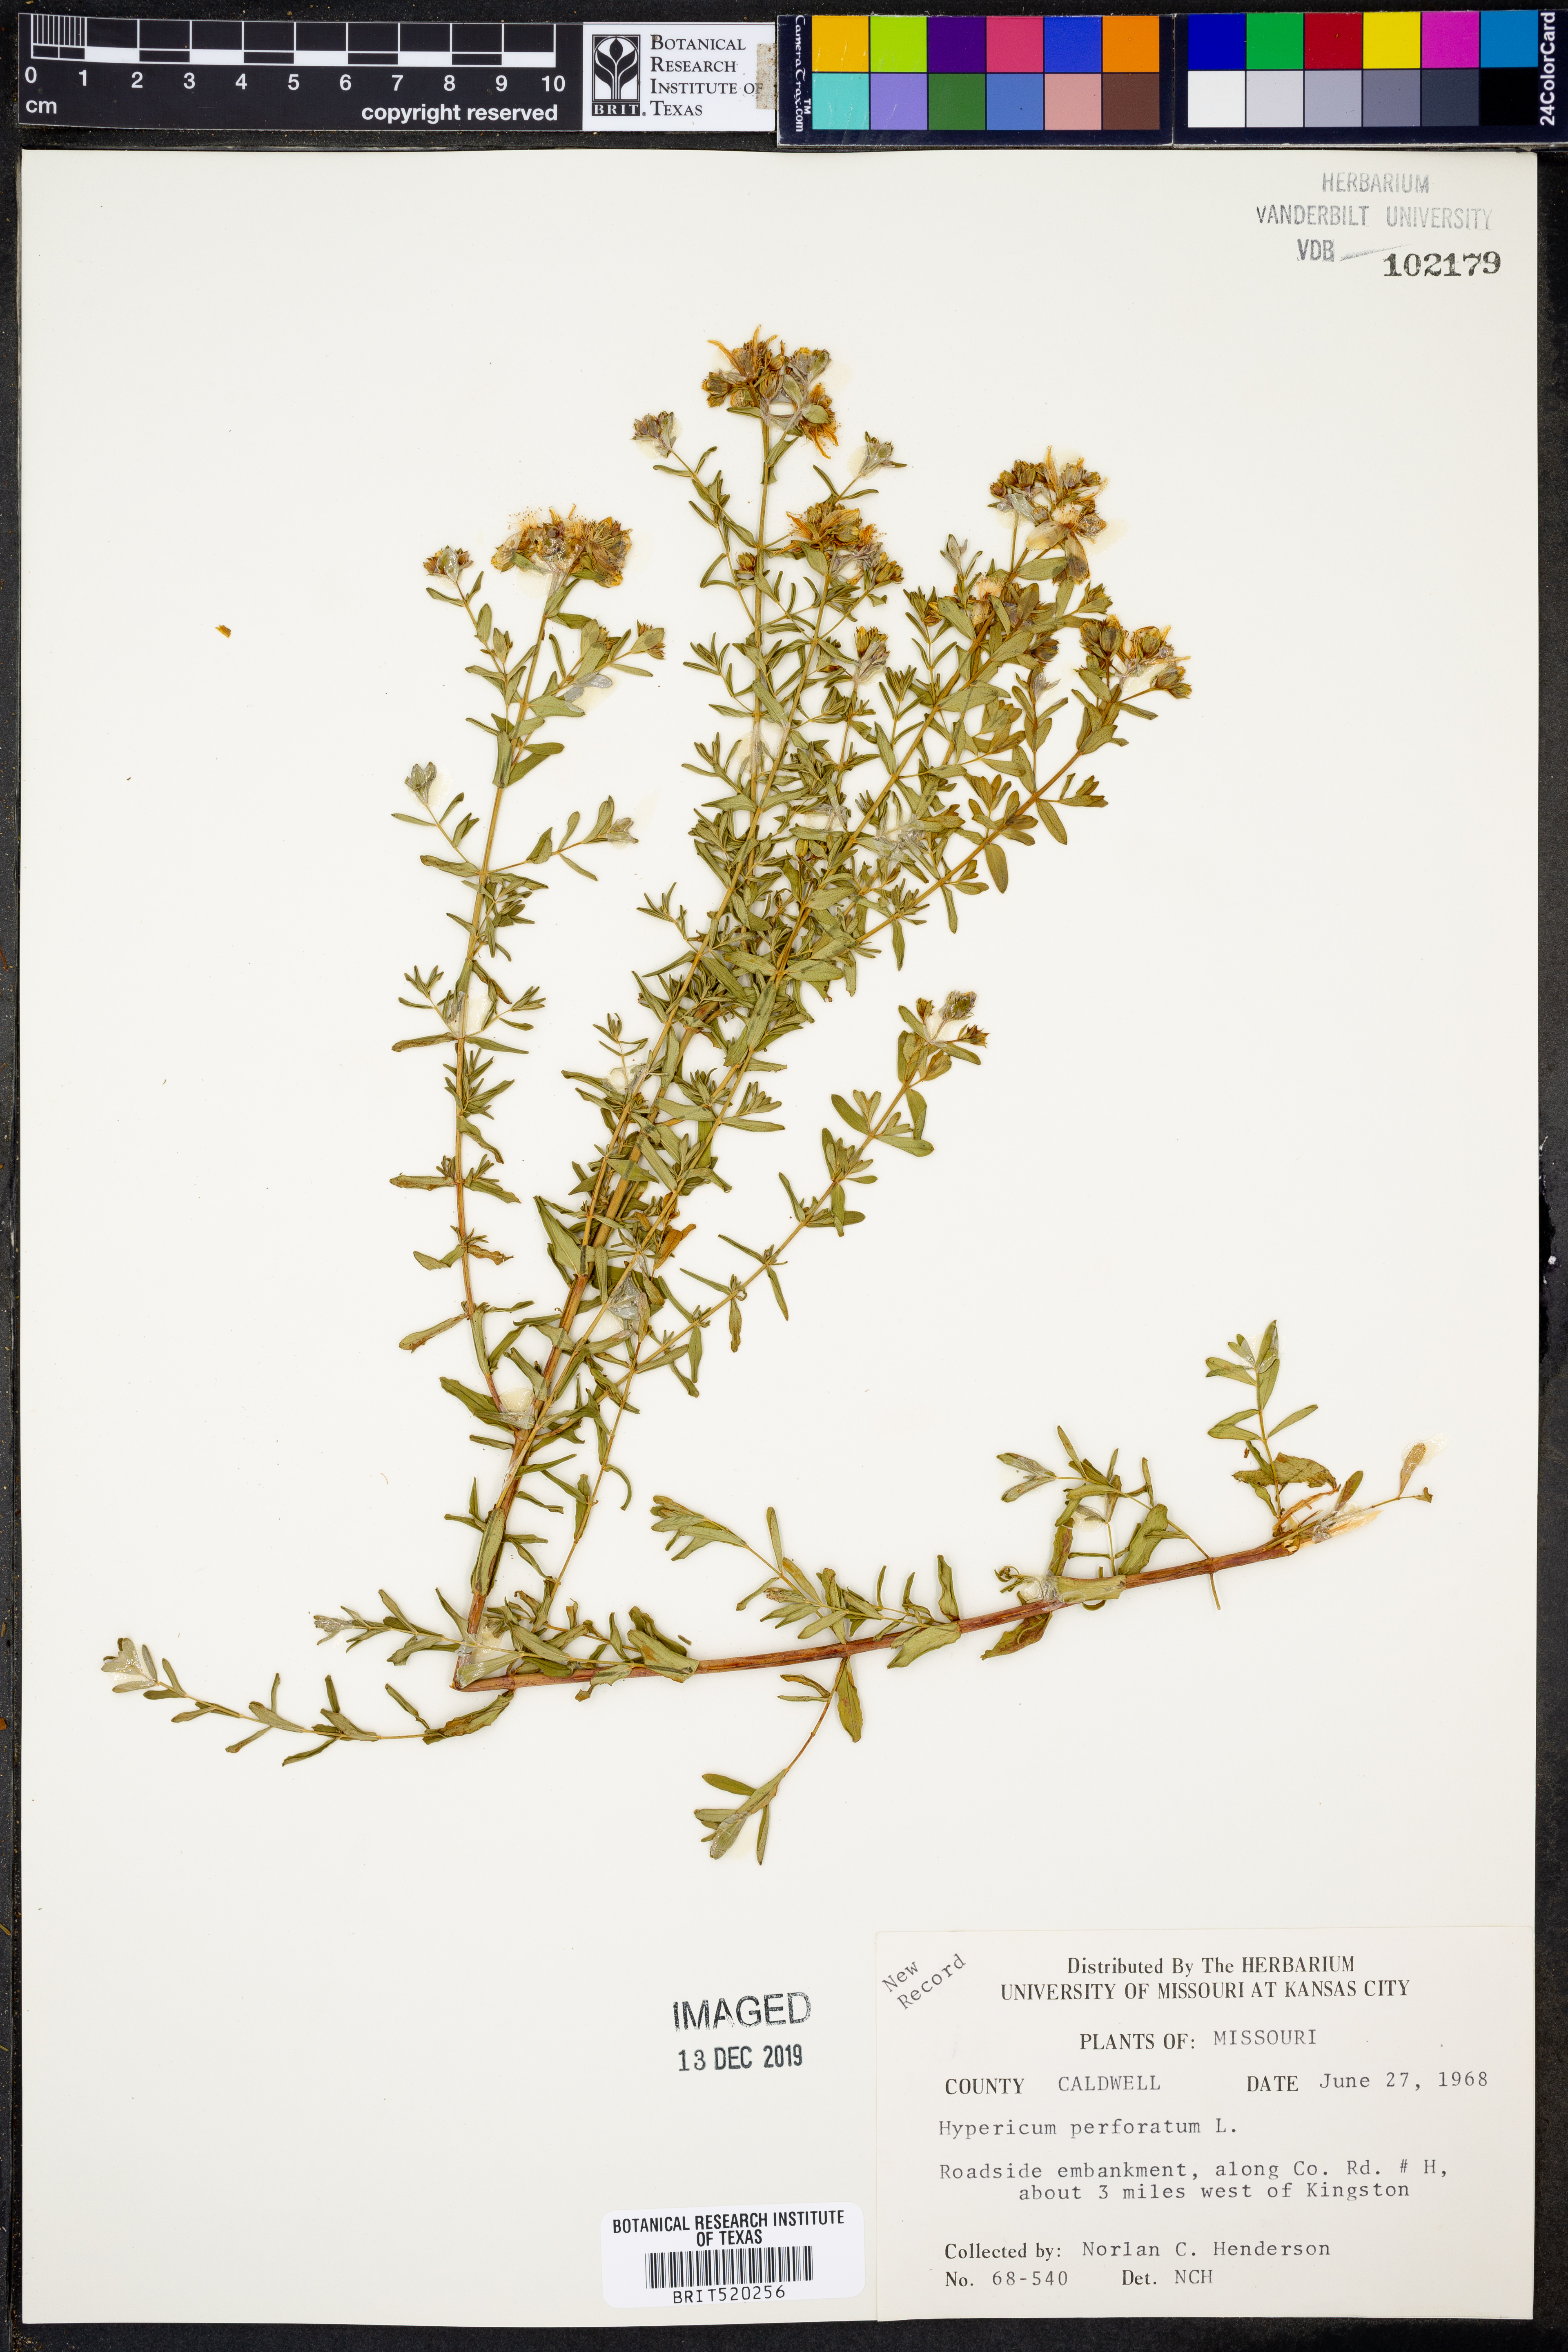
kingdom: Plantae
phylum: Tracheophyta
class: Magnoliopsida
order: Malpighiales
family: Hypericaceae
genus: Hypericum
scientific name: Hypericum perforatum
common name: Common st. johnswort
